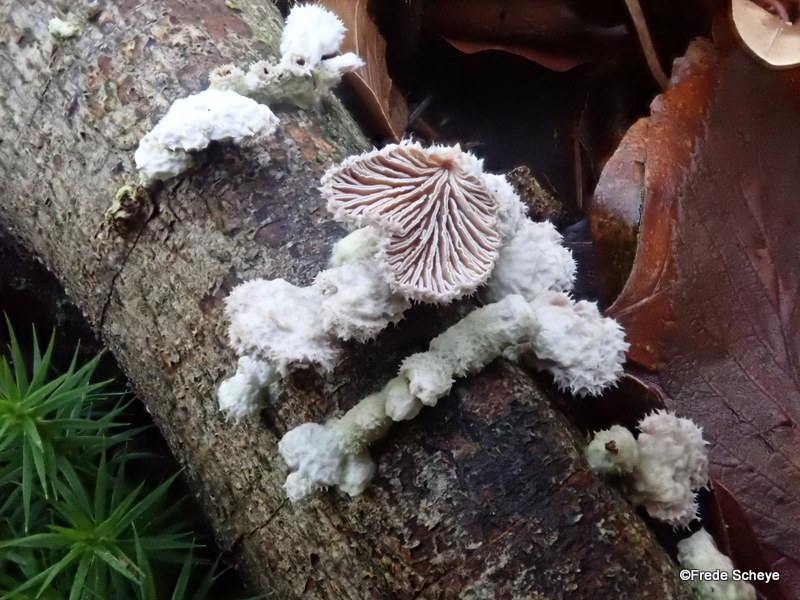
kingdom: Fungi
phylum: Basidiomycota
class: Agaricomycetes
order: Agaricales
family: Schizophyllaceae
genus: Schizophyllum
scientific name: Schizophyllum commune
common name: kløvblad
